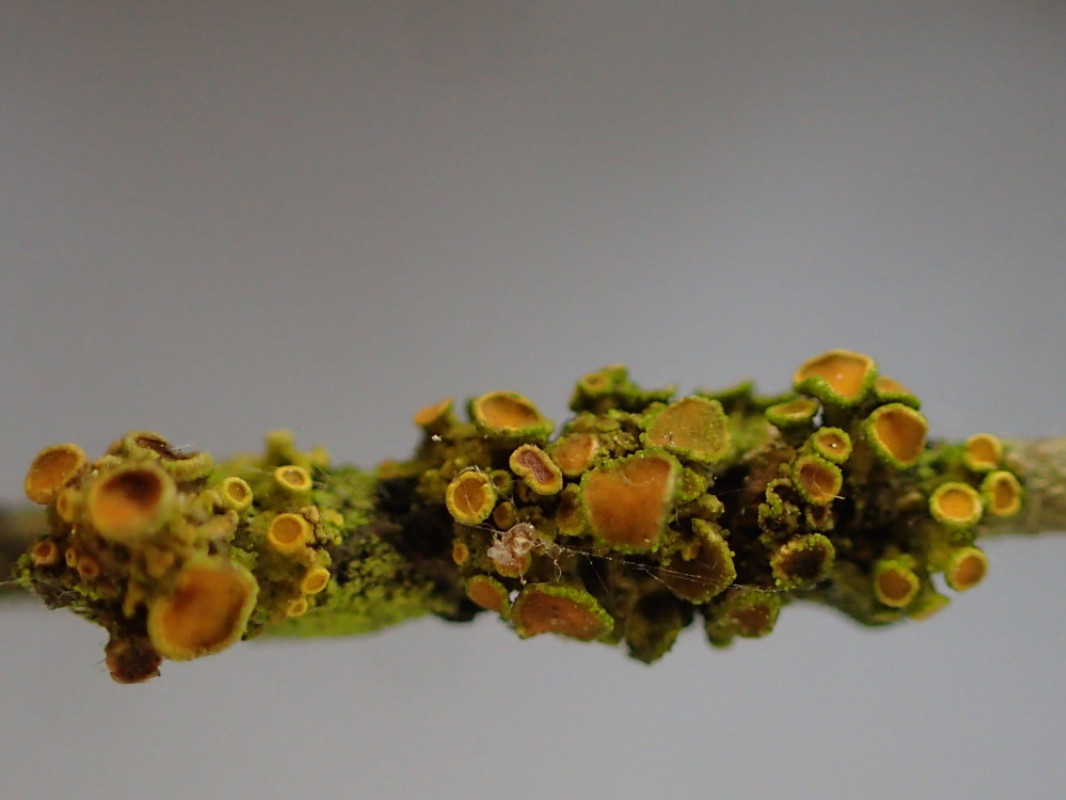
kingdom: Fungi
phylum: Ascomycota
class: Lecanoromycetes
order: Teloschistales
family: Teloschistaceae
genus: Polycauliona
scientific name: Polycauliona polycarpa
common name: mangefrugtet orangelav
